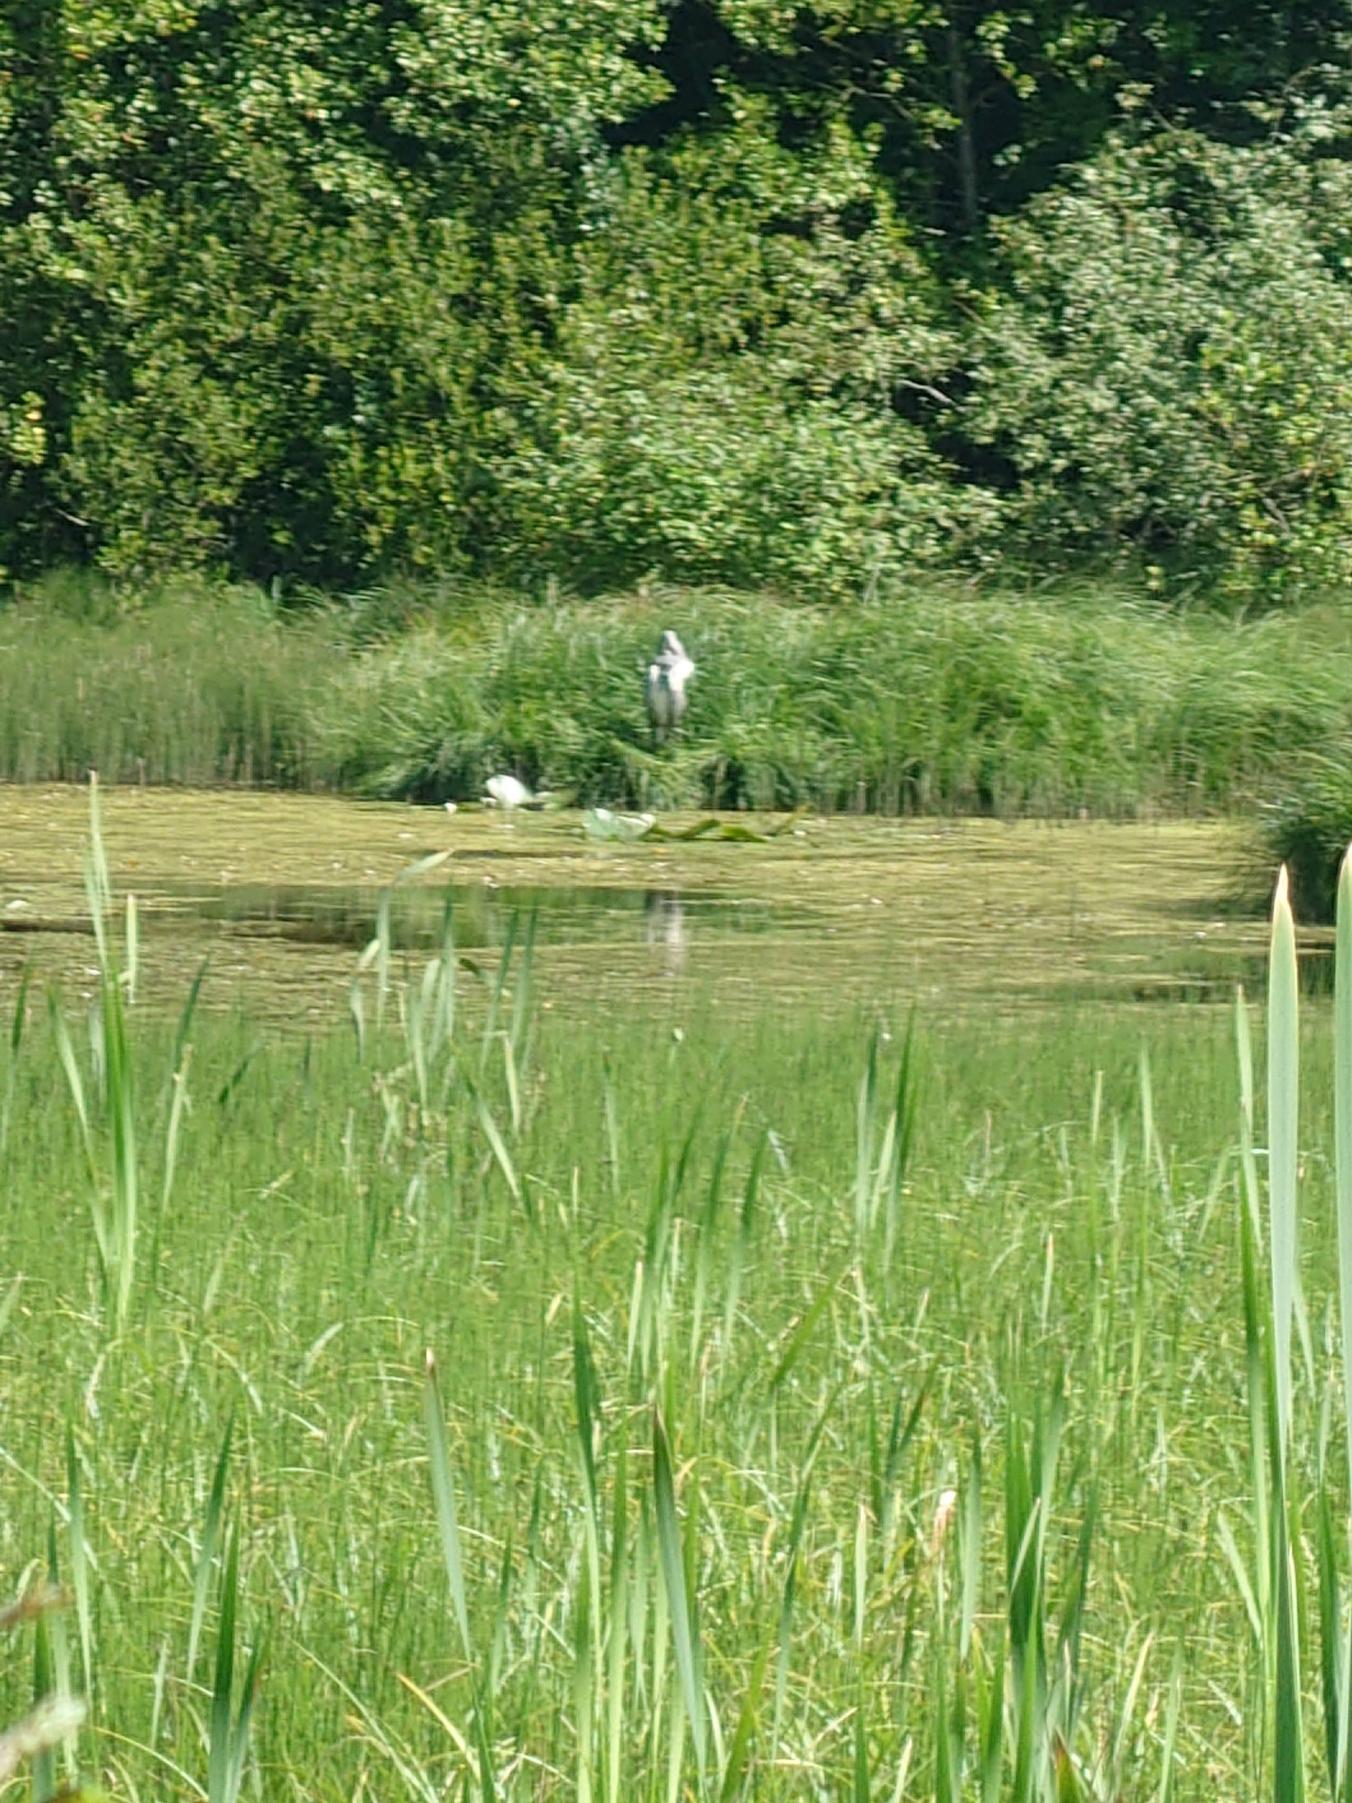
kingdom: Animalia
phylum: Chordata
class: Aves
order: Pelecaniformes
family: Ardeidae
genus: Ardea
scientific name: Ardea cinerea
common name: Fiskehejre
